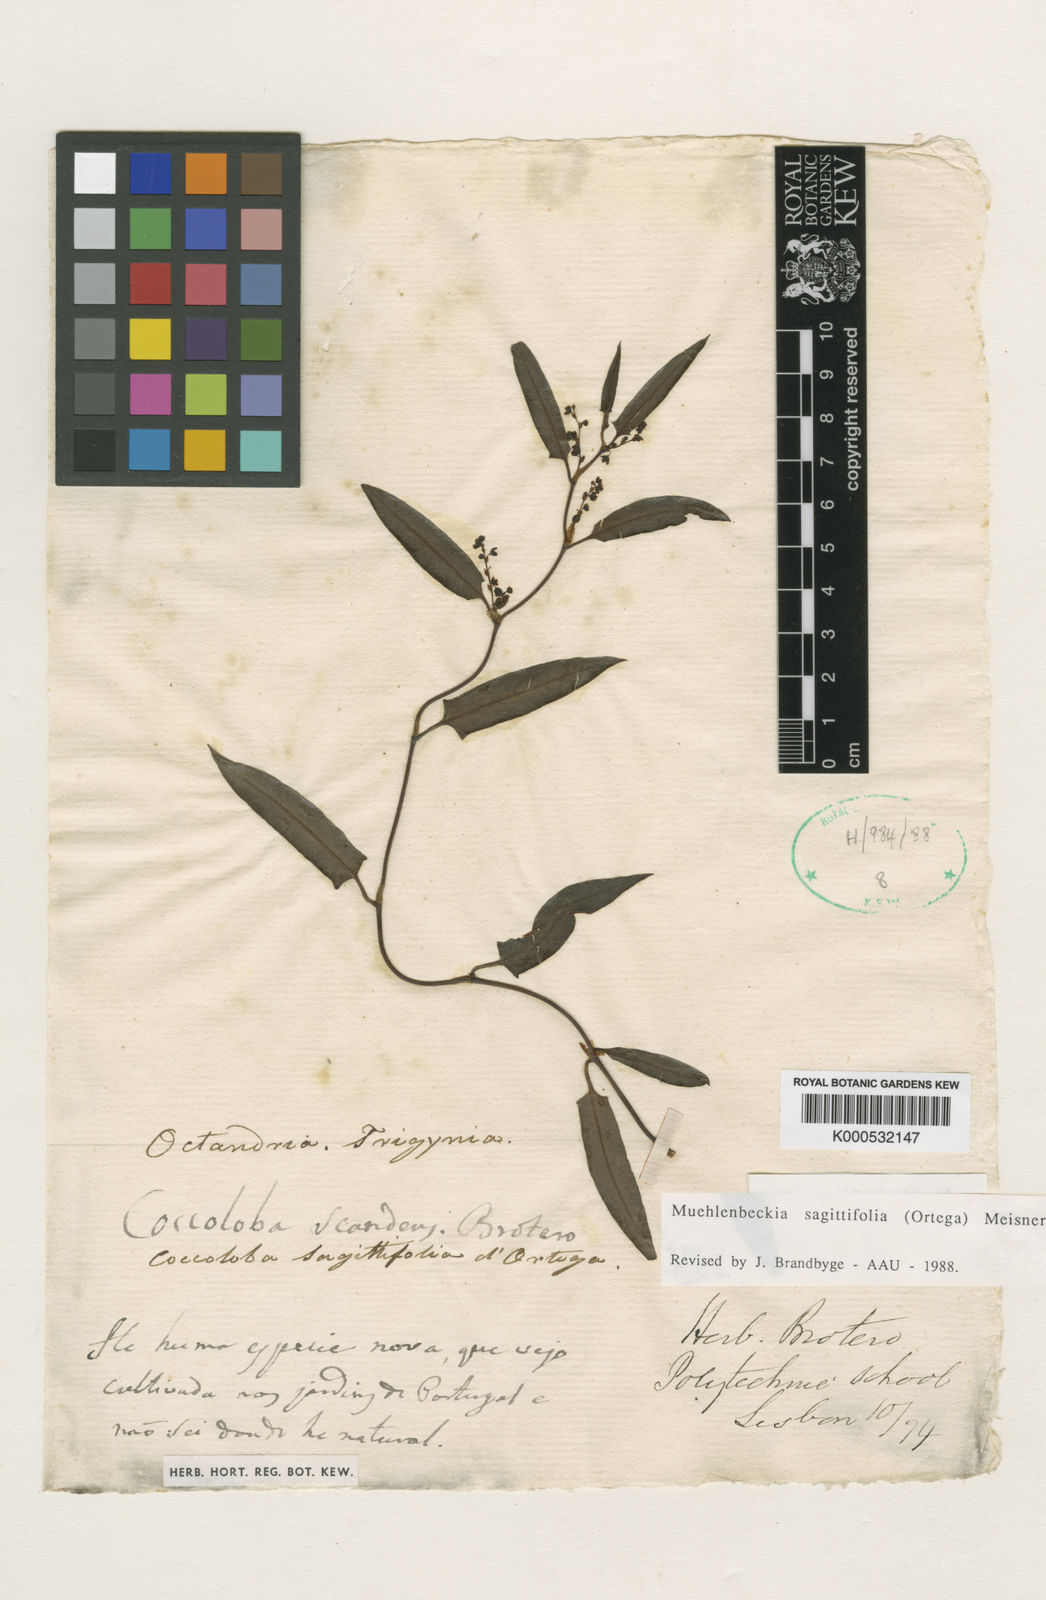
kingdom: Plantae
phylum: Tracheophyta
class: Magnoliopsida
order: Caryophyllales
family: Polygonaceae
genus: Muehlenbeckia
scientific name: Muehlenbeckia volcanica
